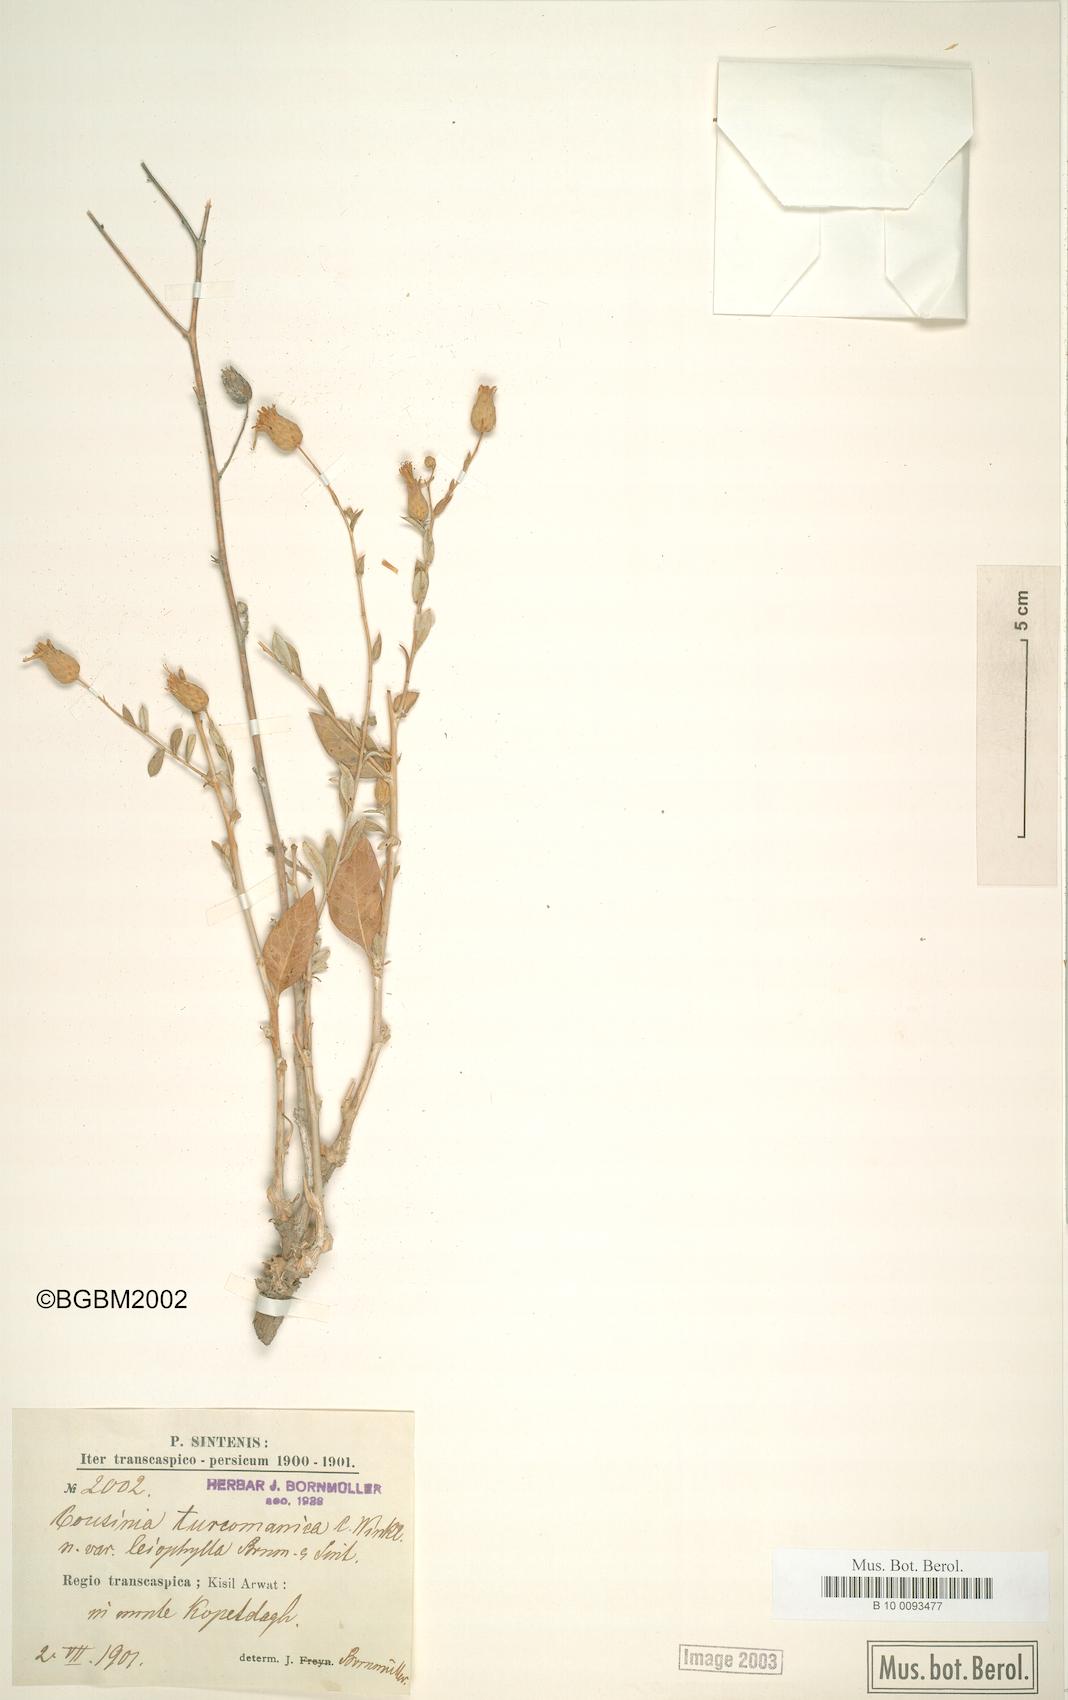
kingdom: Plantae
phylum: Tracheophyta
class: Magnoliopsida
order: Asterales
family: Asteraceae
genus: Cousinia
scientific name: Cousinia turcomanica
